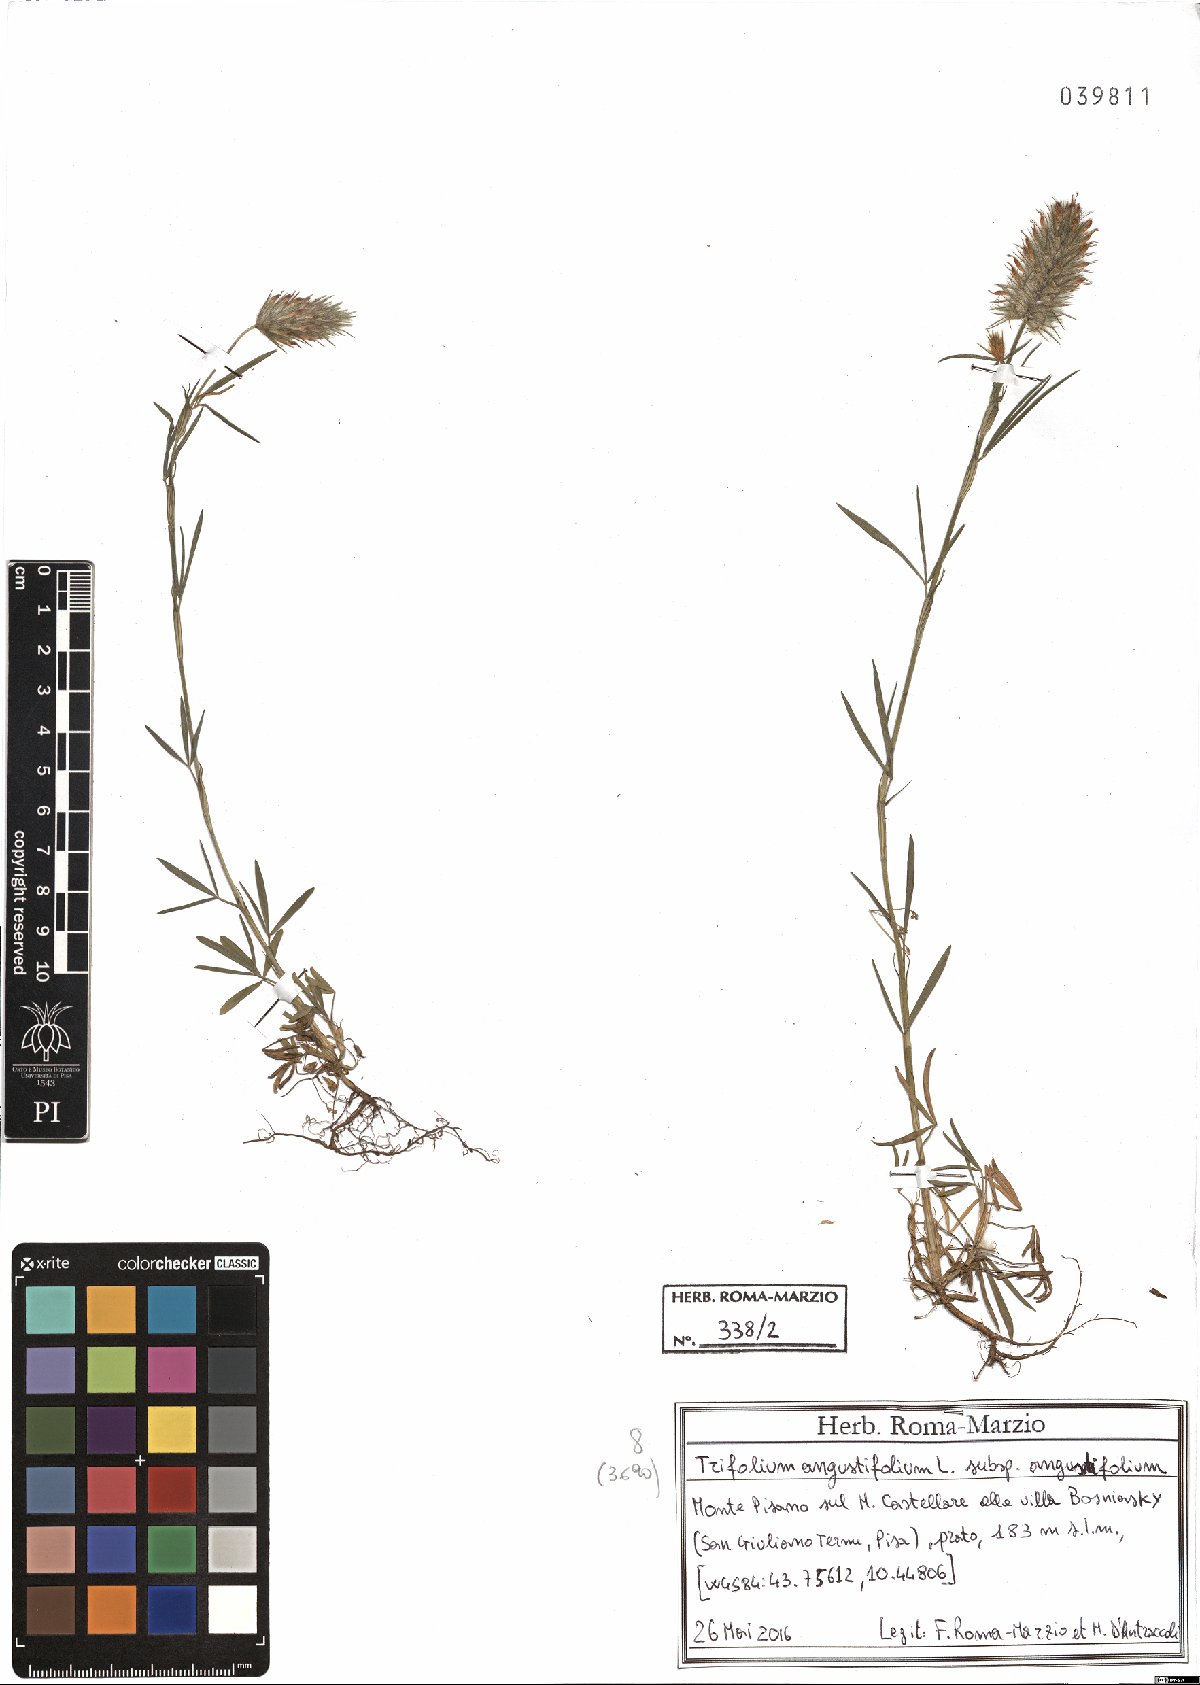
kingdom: Plantae
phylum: Tracheophyta
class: Magnoliopsida
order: Fabales
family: Fabaceae
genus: Trifolium
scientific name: Trifolium angustifolium
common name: Narrow clover
